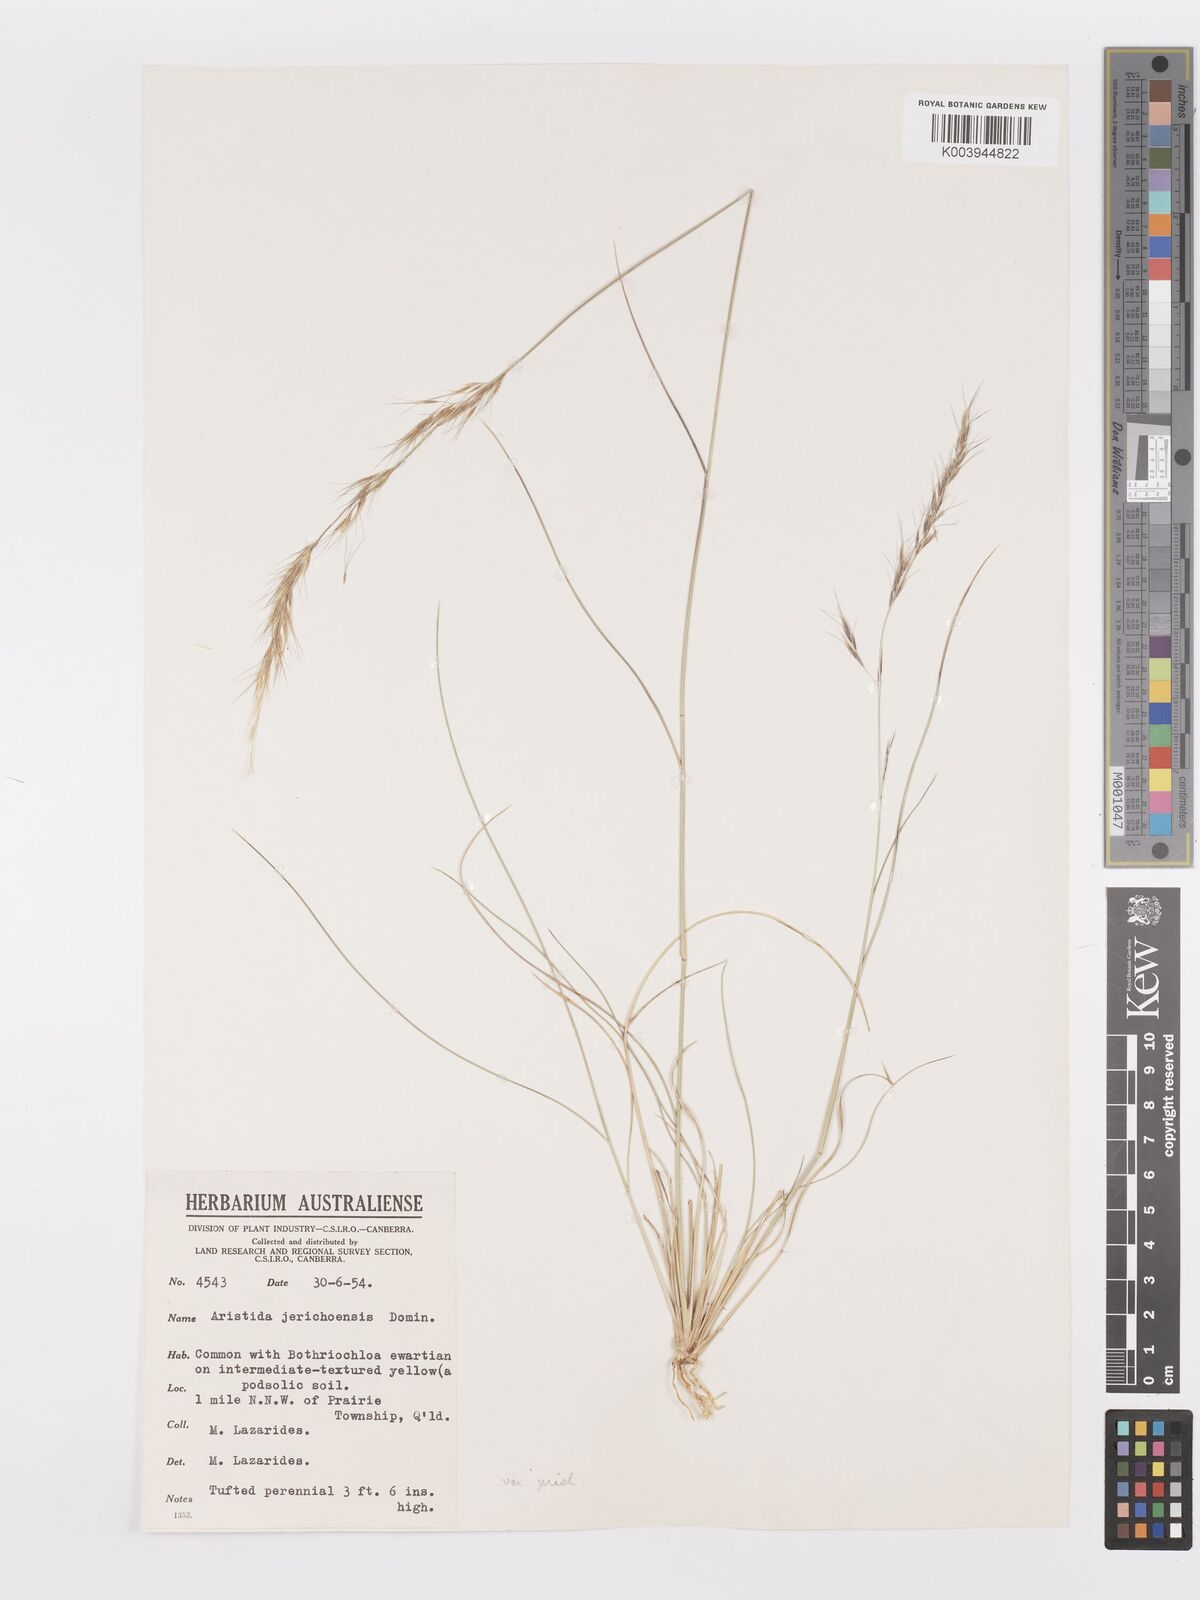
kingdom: Plantae
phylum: Tracheophyta
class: Liliopsida
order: Poales
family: Poaceae
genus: Aristida
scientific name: Aristida jerichoensis
